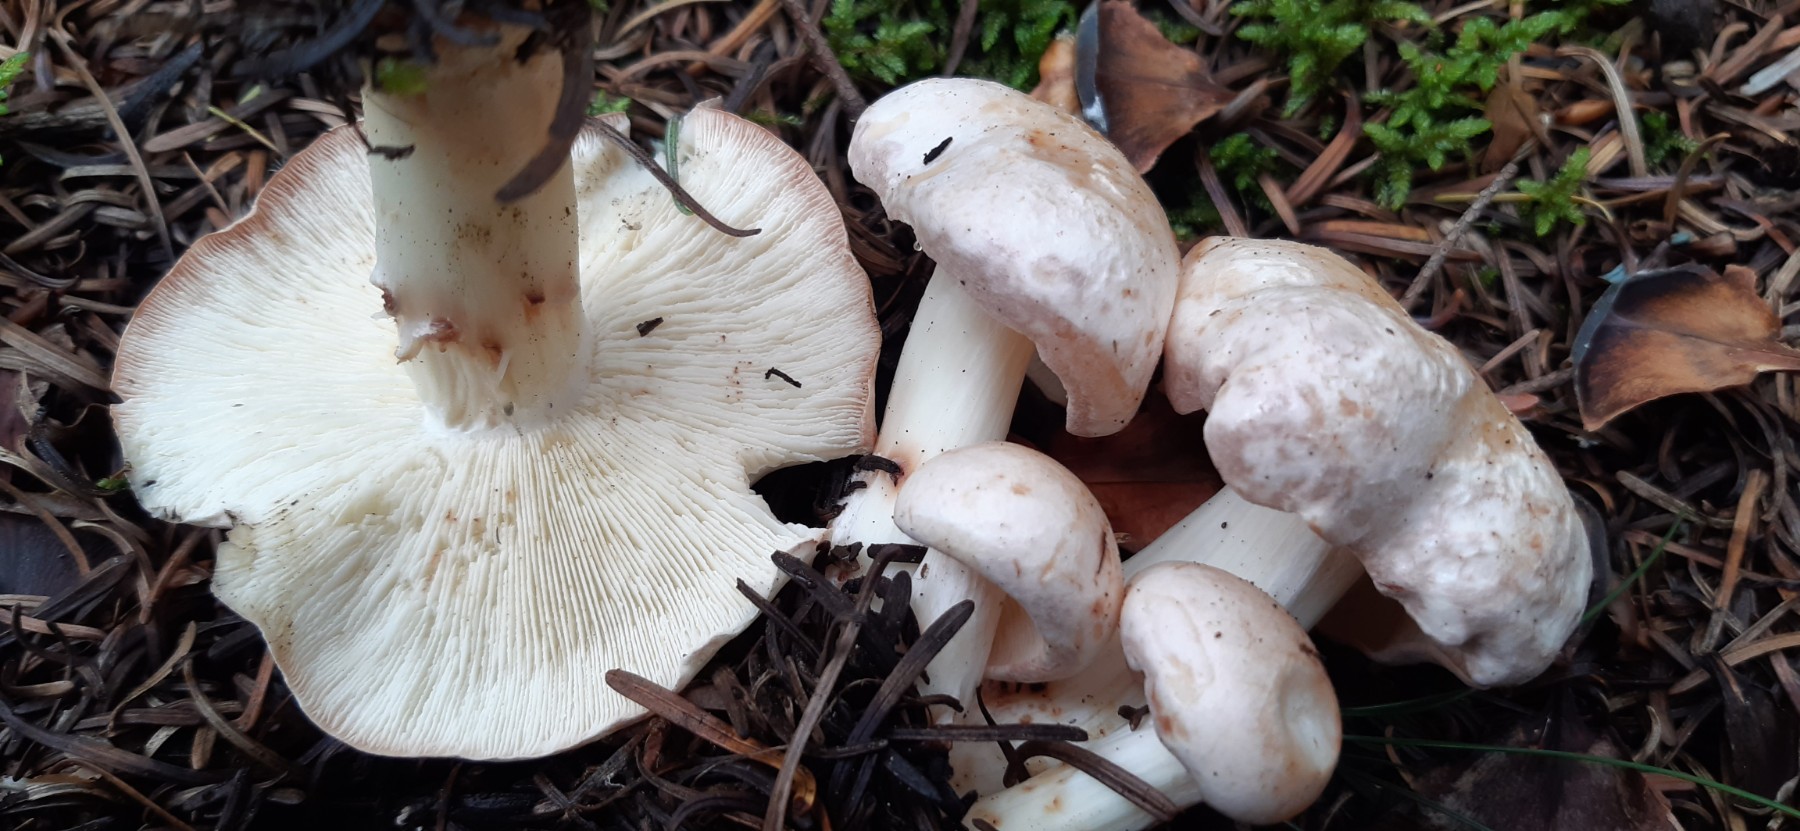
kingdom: Fungi
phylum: Basidiomycota
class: Agaricomycetes
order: Agaricales
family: Omphalotaceae
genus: Rhodocollybia
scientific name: Rhodocollybia maculata
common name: plettet fladhat
